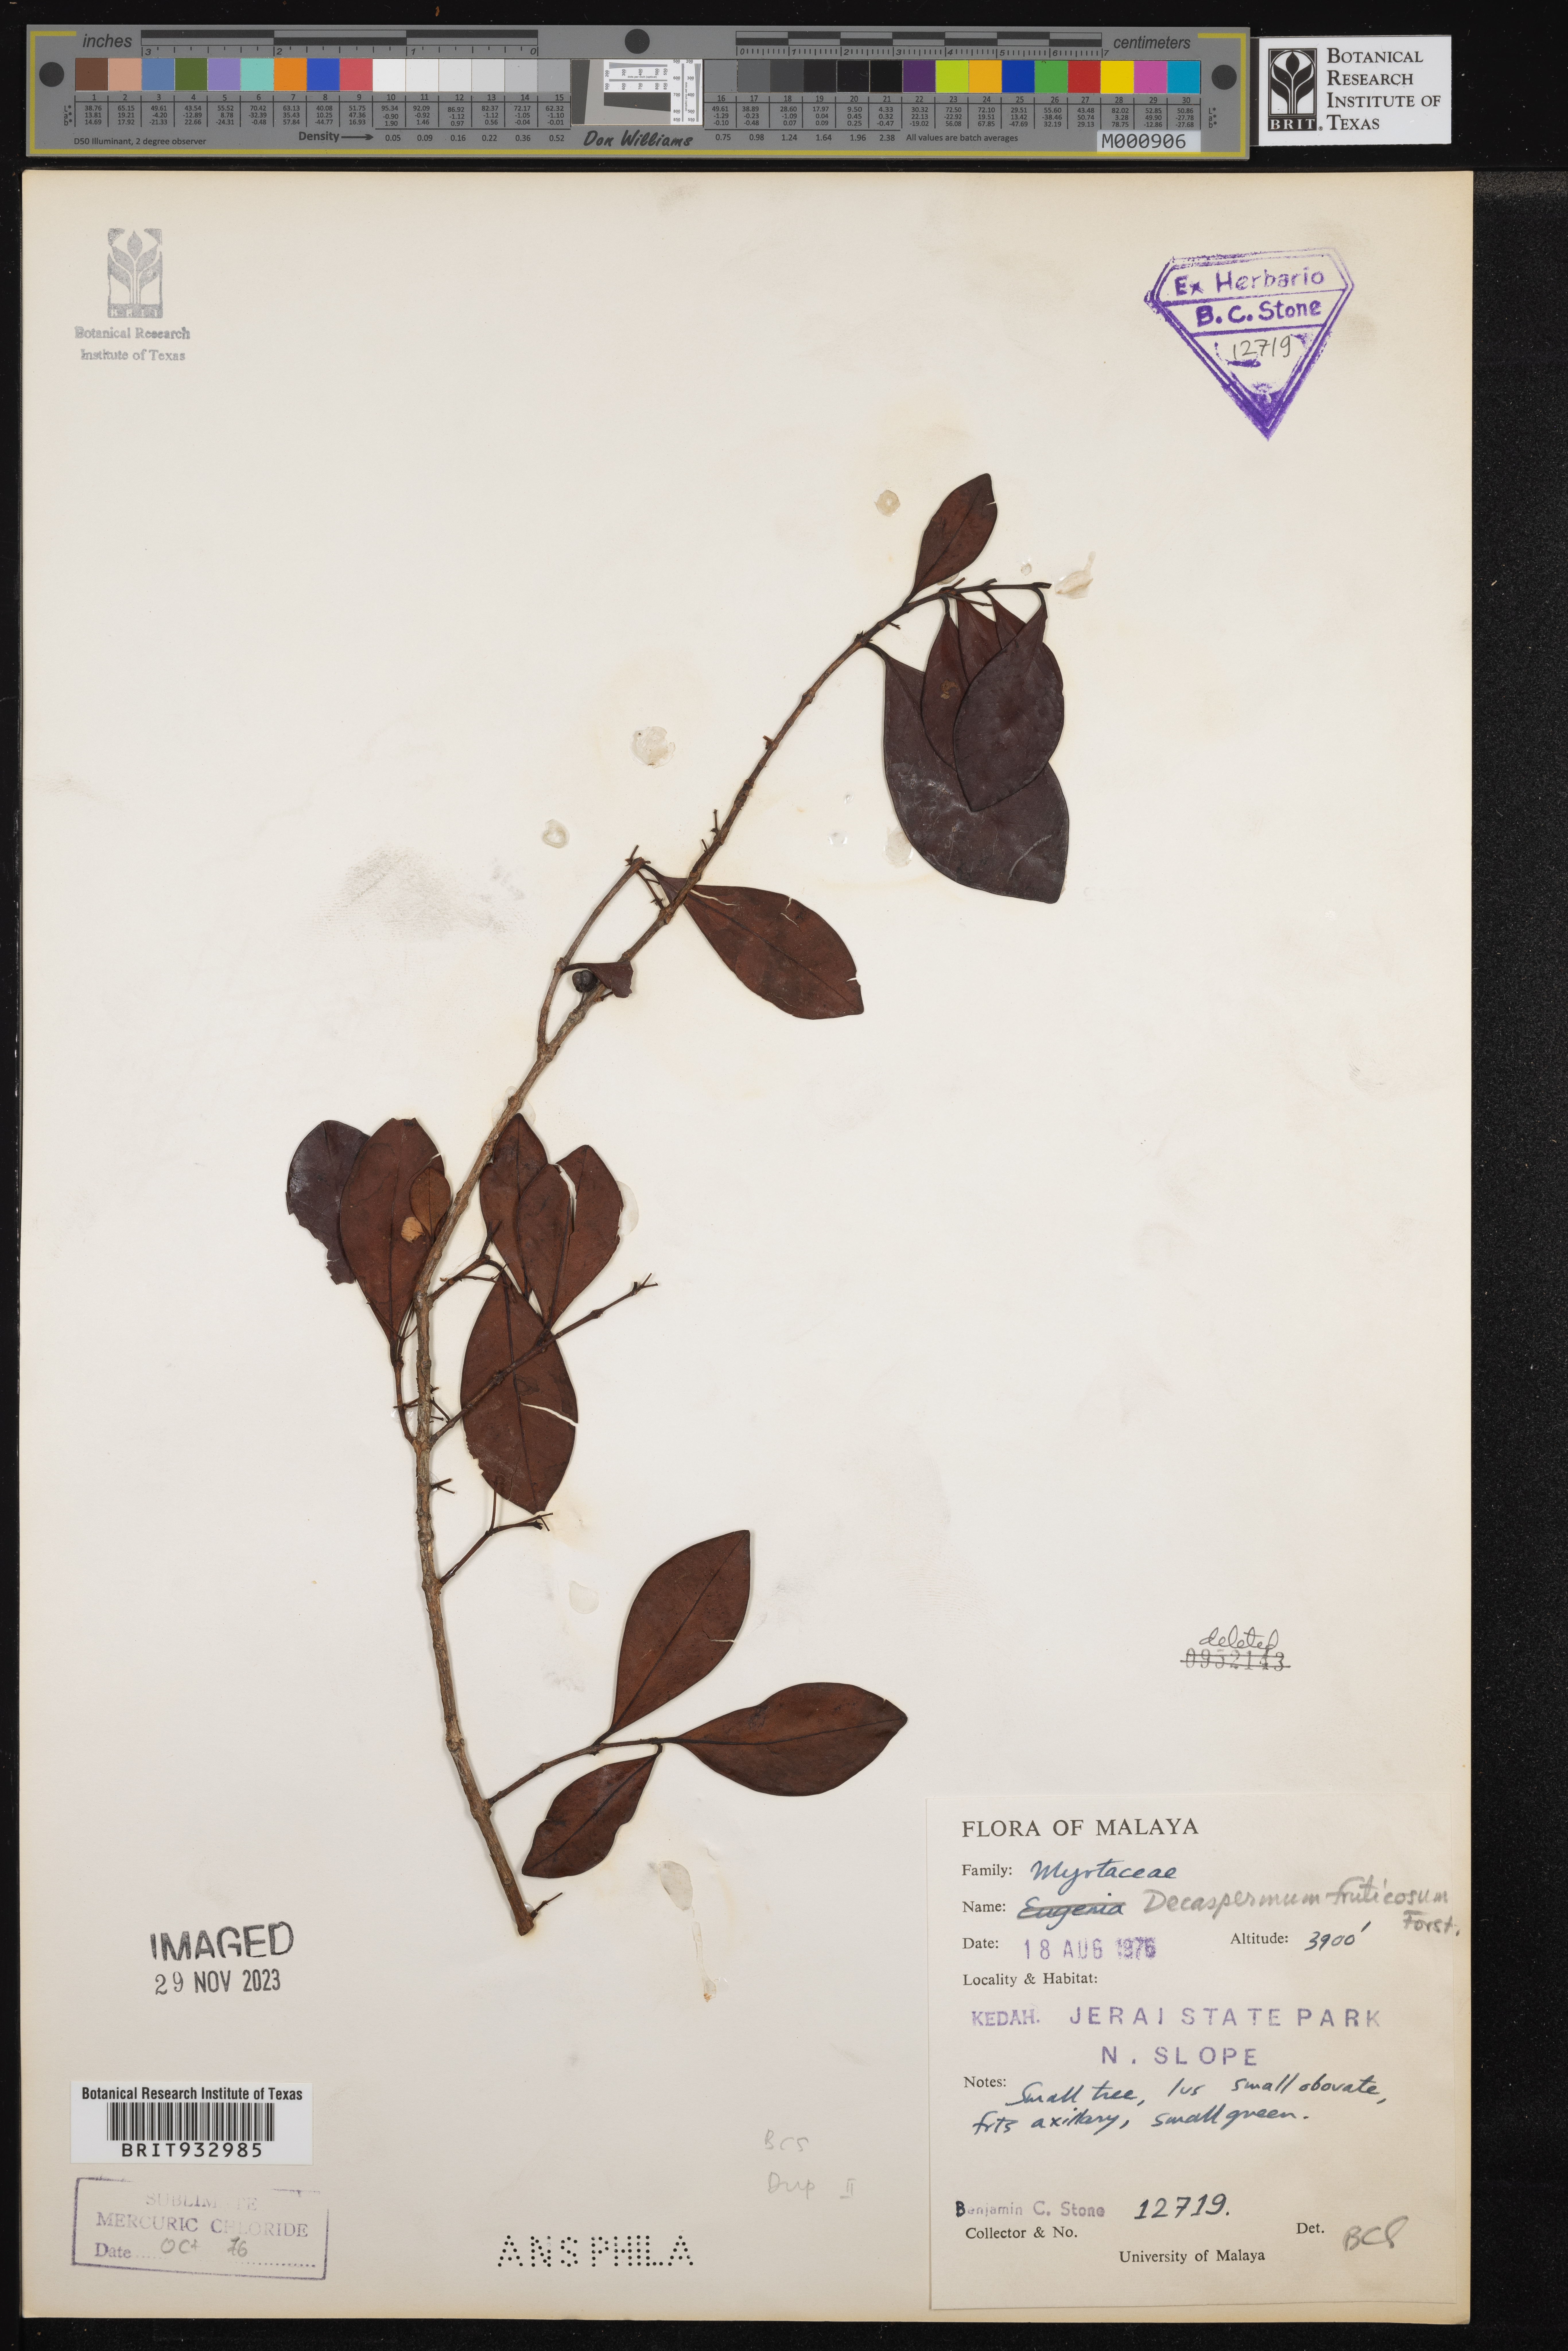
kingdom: Plantae
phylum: Tracheophyta
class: Magnoliopsida
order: Myrtales
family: Myrtaceae
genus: Decaspermum
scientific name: Decaspermum
